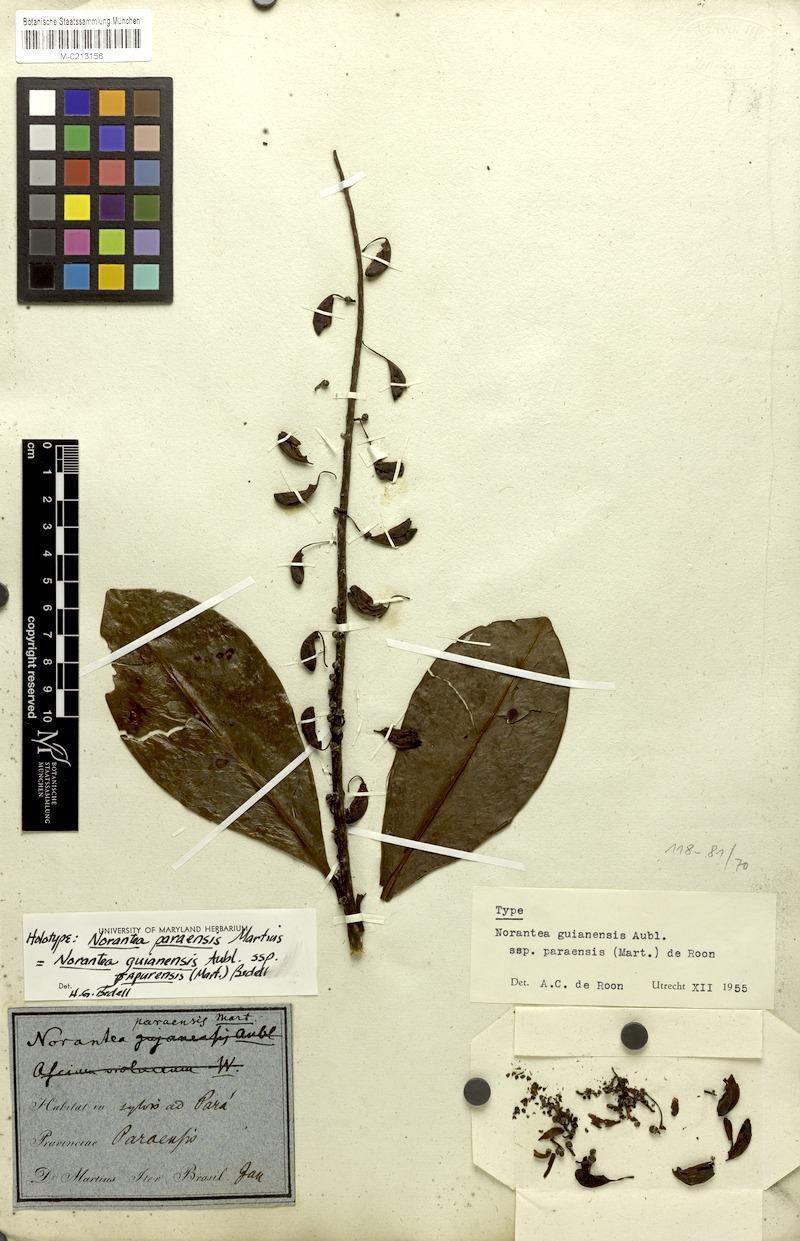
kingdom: Plantae
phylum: Tracheophyta
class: Magnoliopsida
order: Ericales
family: Marcgraviaceae
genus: Norantea
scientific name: Norantea guianensis
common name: Red hot poker vine
